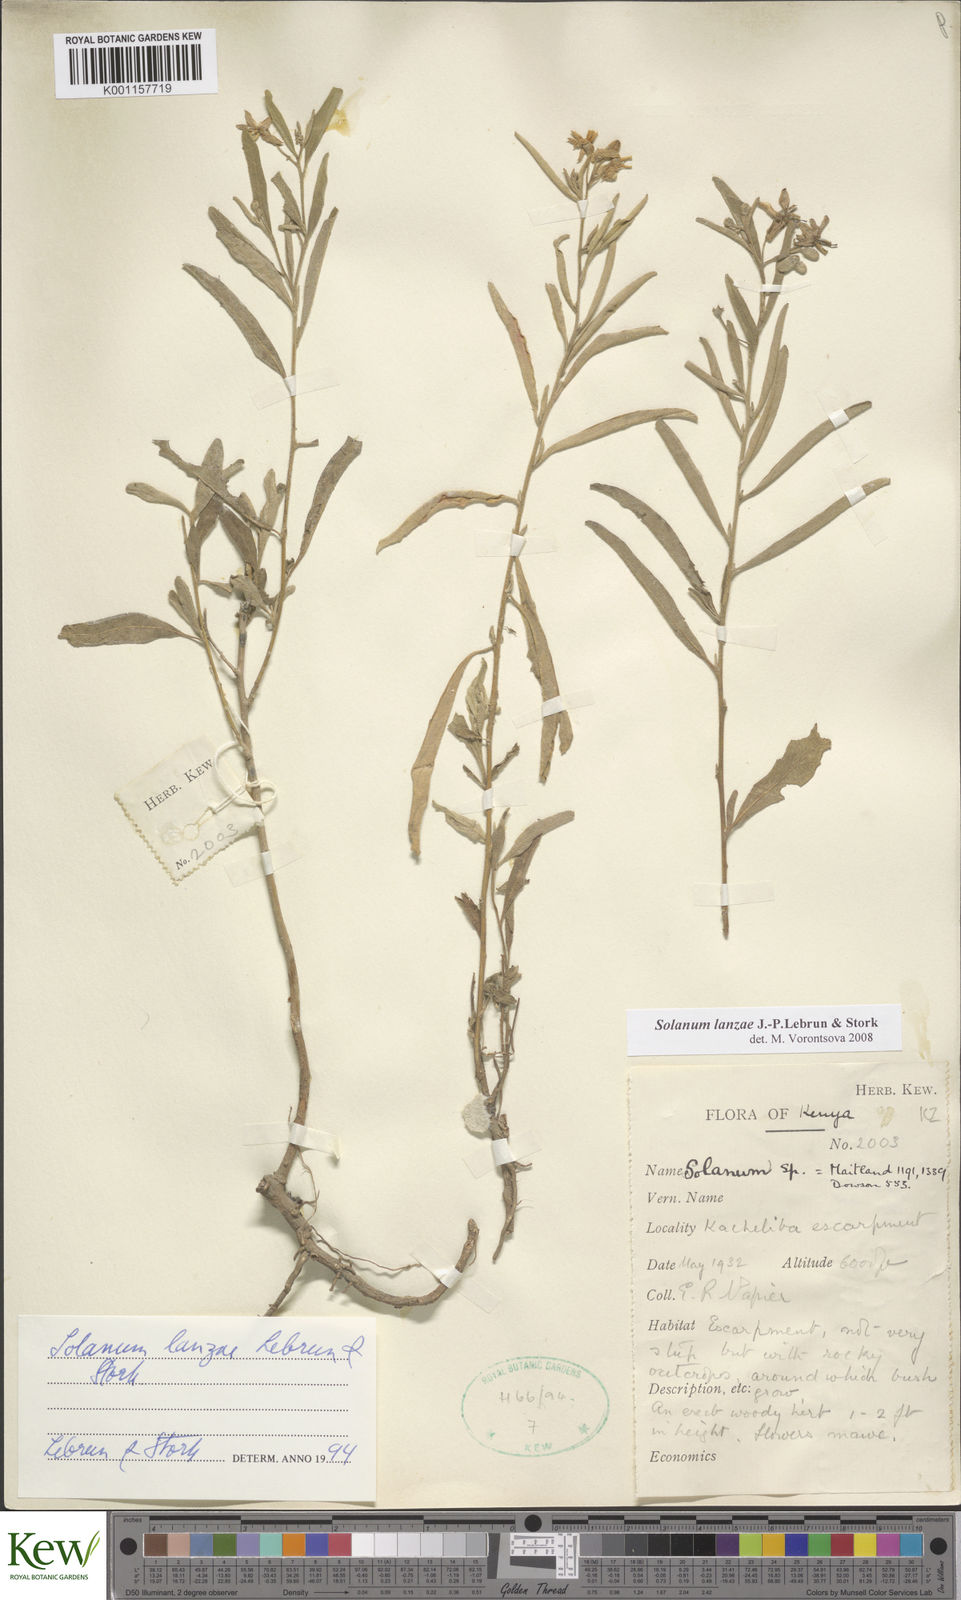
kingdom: Plantae
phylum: Tracheophyta
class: Magnoliopsida
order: Solanales
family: Solanaceae
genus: Solanum
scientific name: Solanum lanzae
